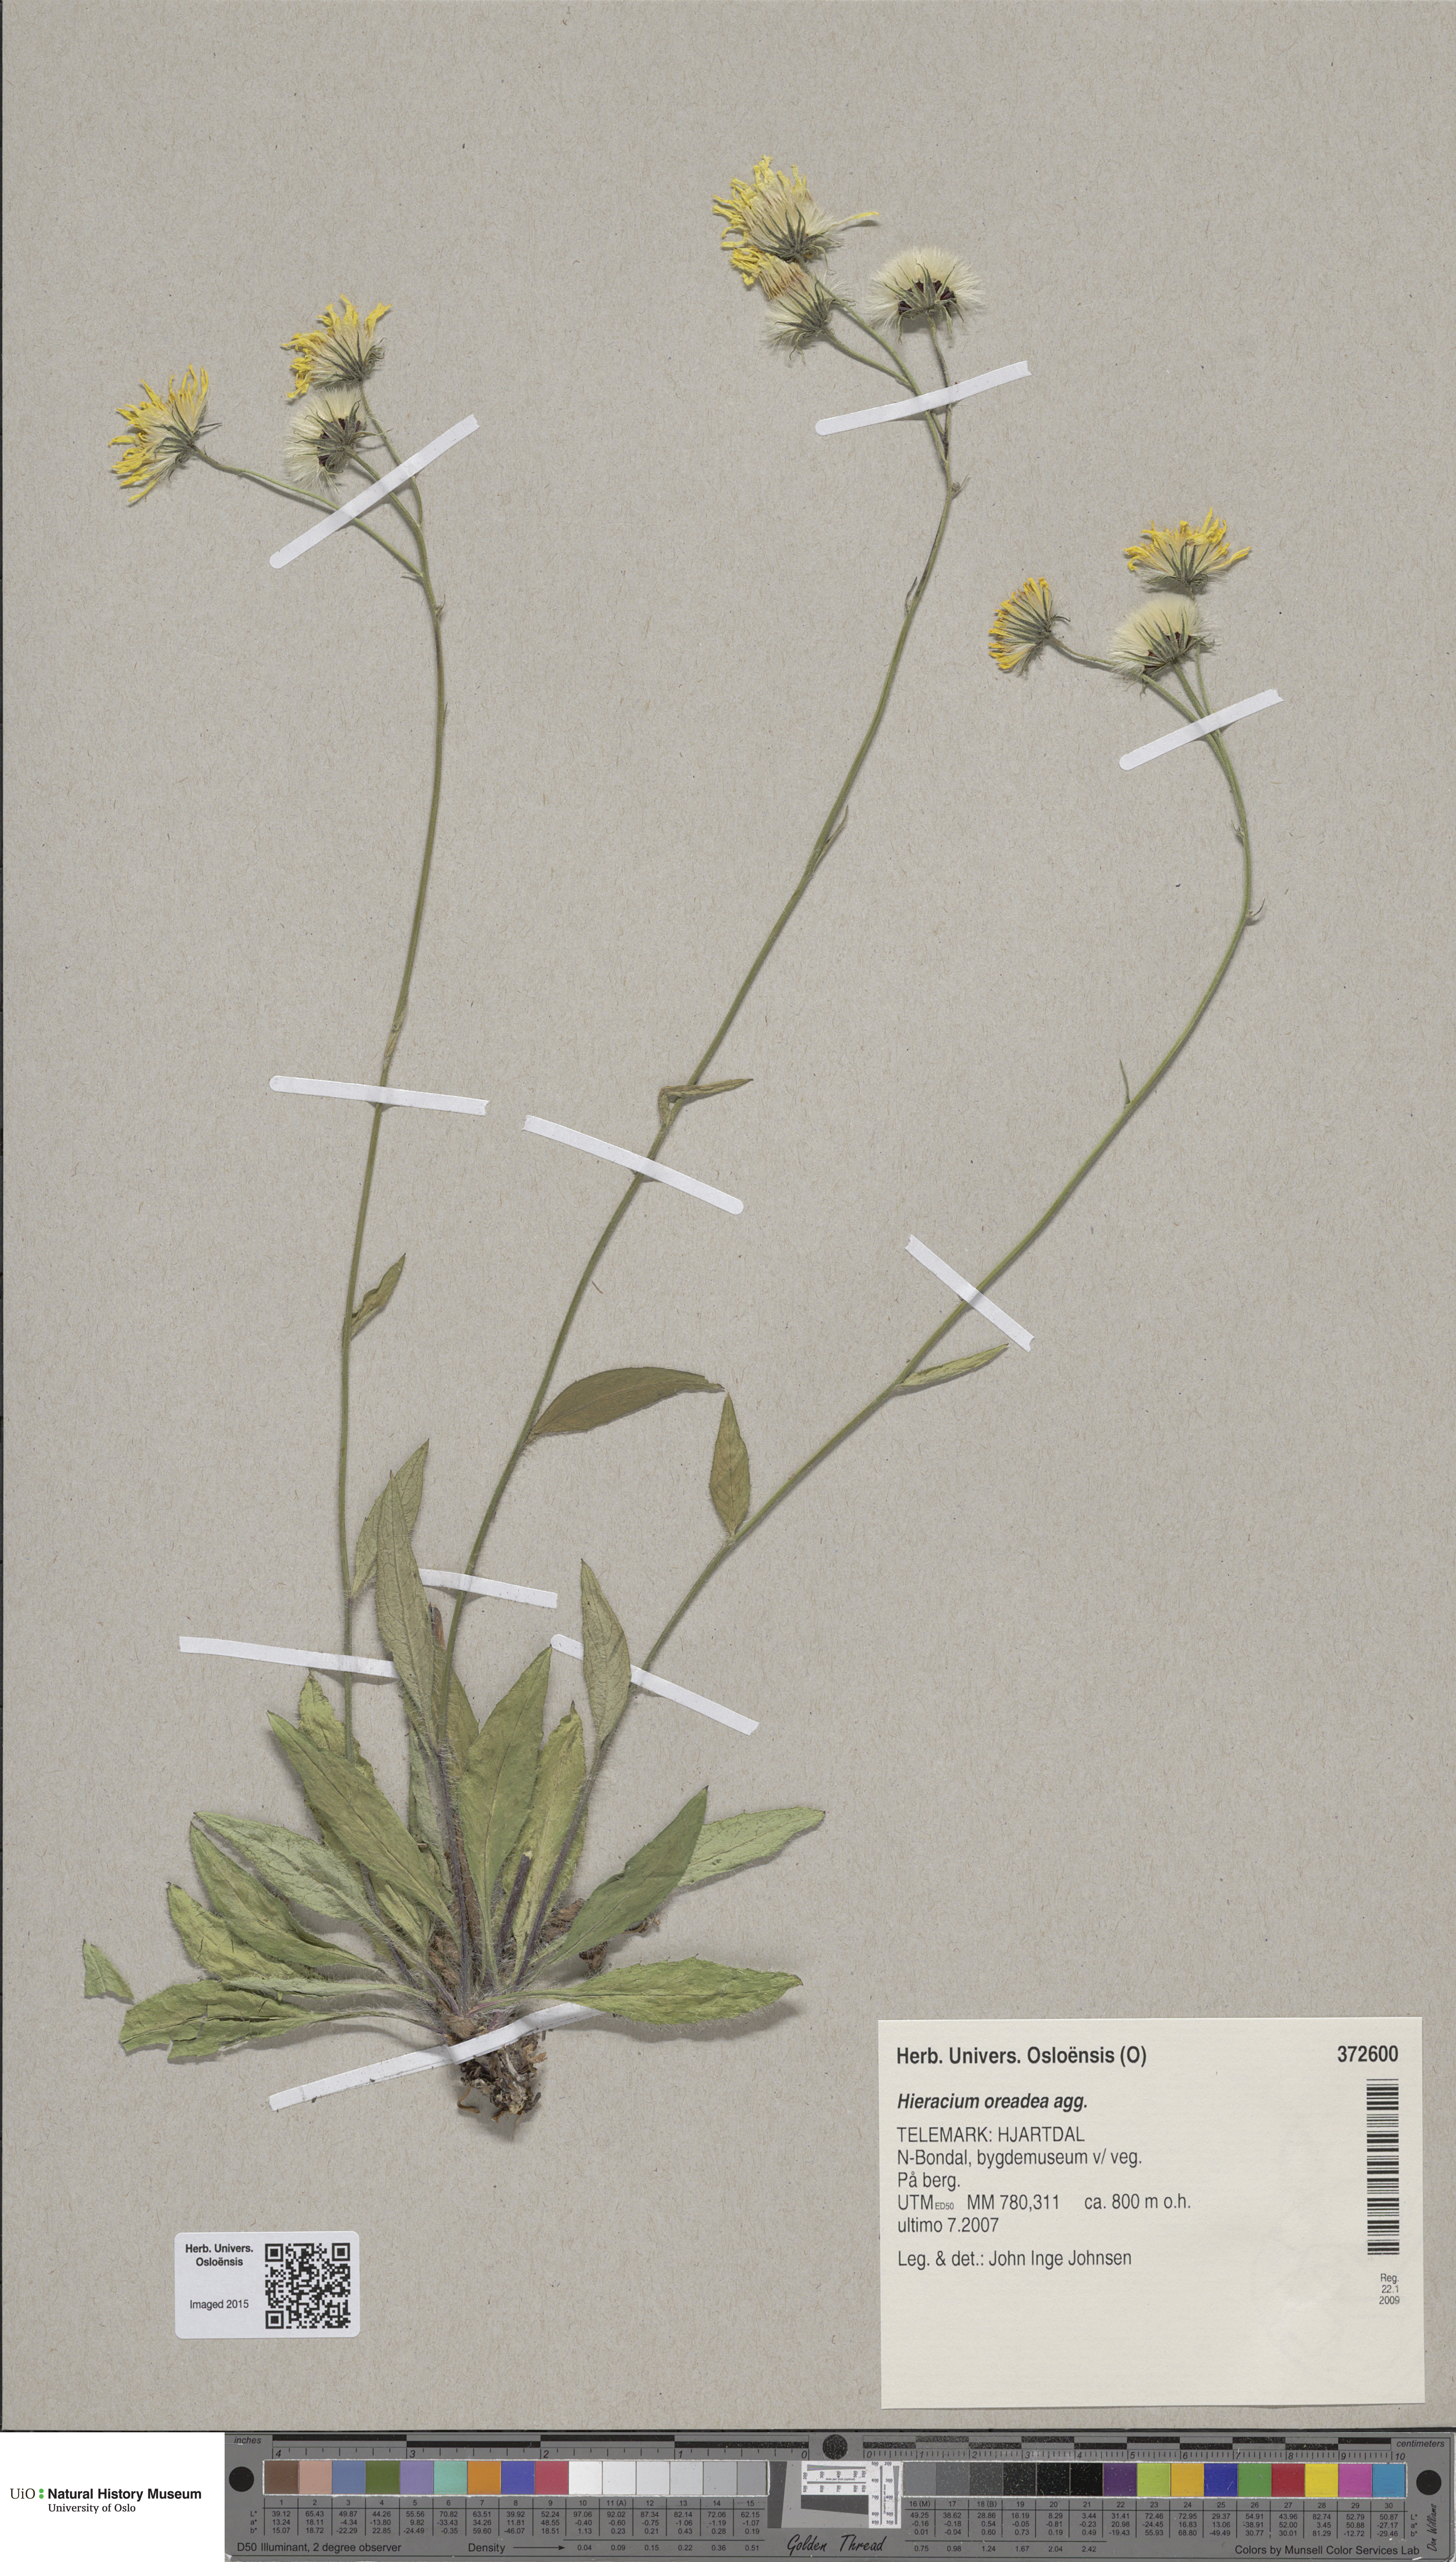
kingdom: Plantae
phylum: Tracheophyta
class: Magnoliopsida
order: Asterales
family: Asteraceae
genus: Hieracium
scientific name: Hieracium
